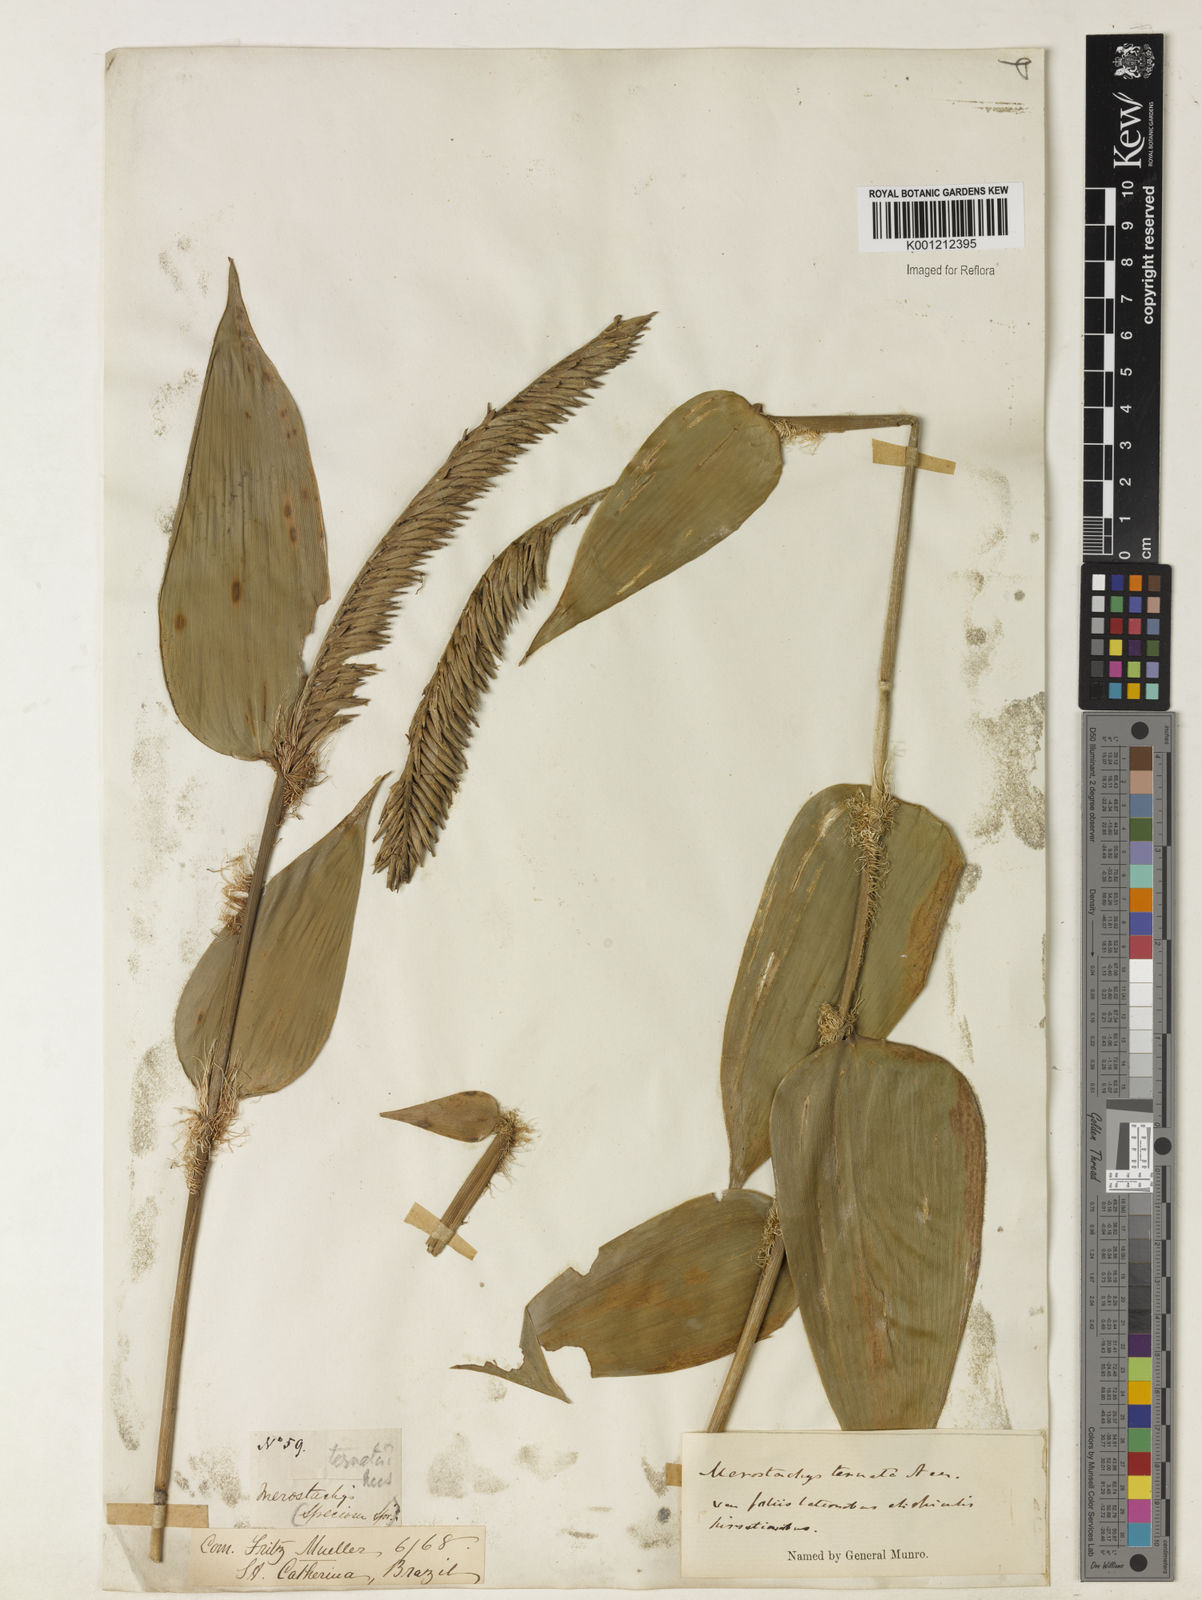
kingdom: Plantae
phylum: Tracheophyta
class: Liliopsida
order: Poales
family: Poaceae
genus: Merostachys
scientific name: Merostachys ternata
